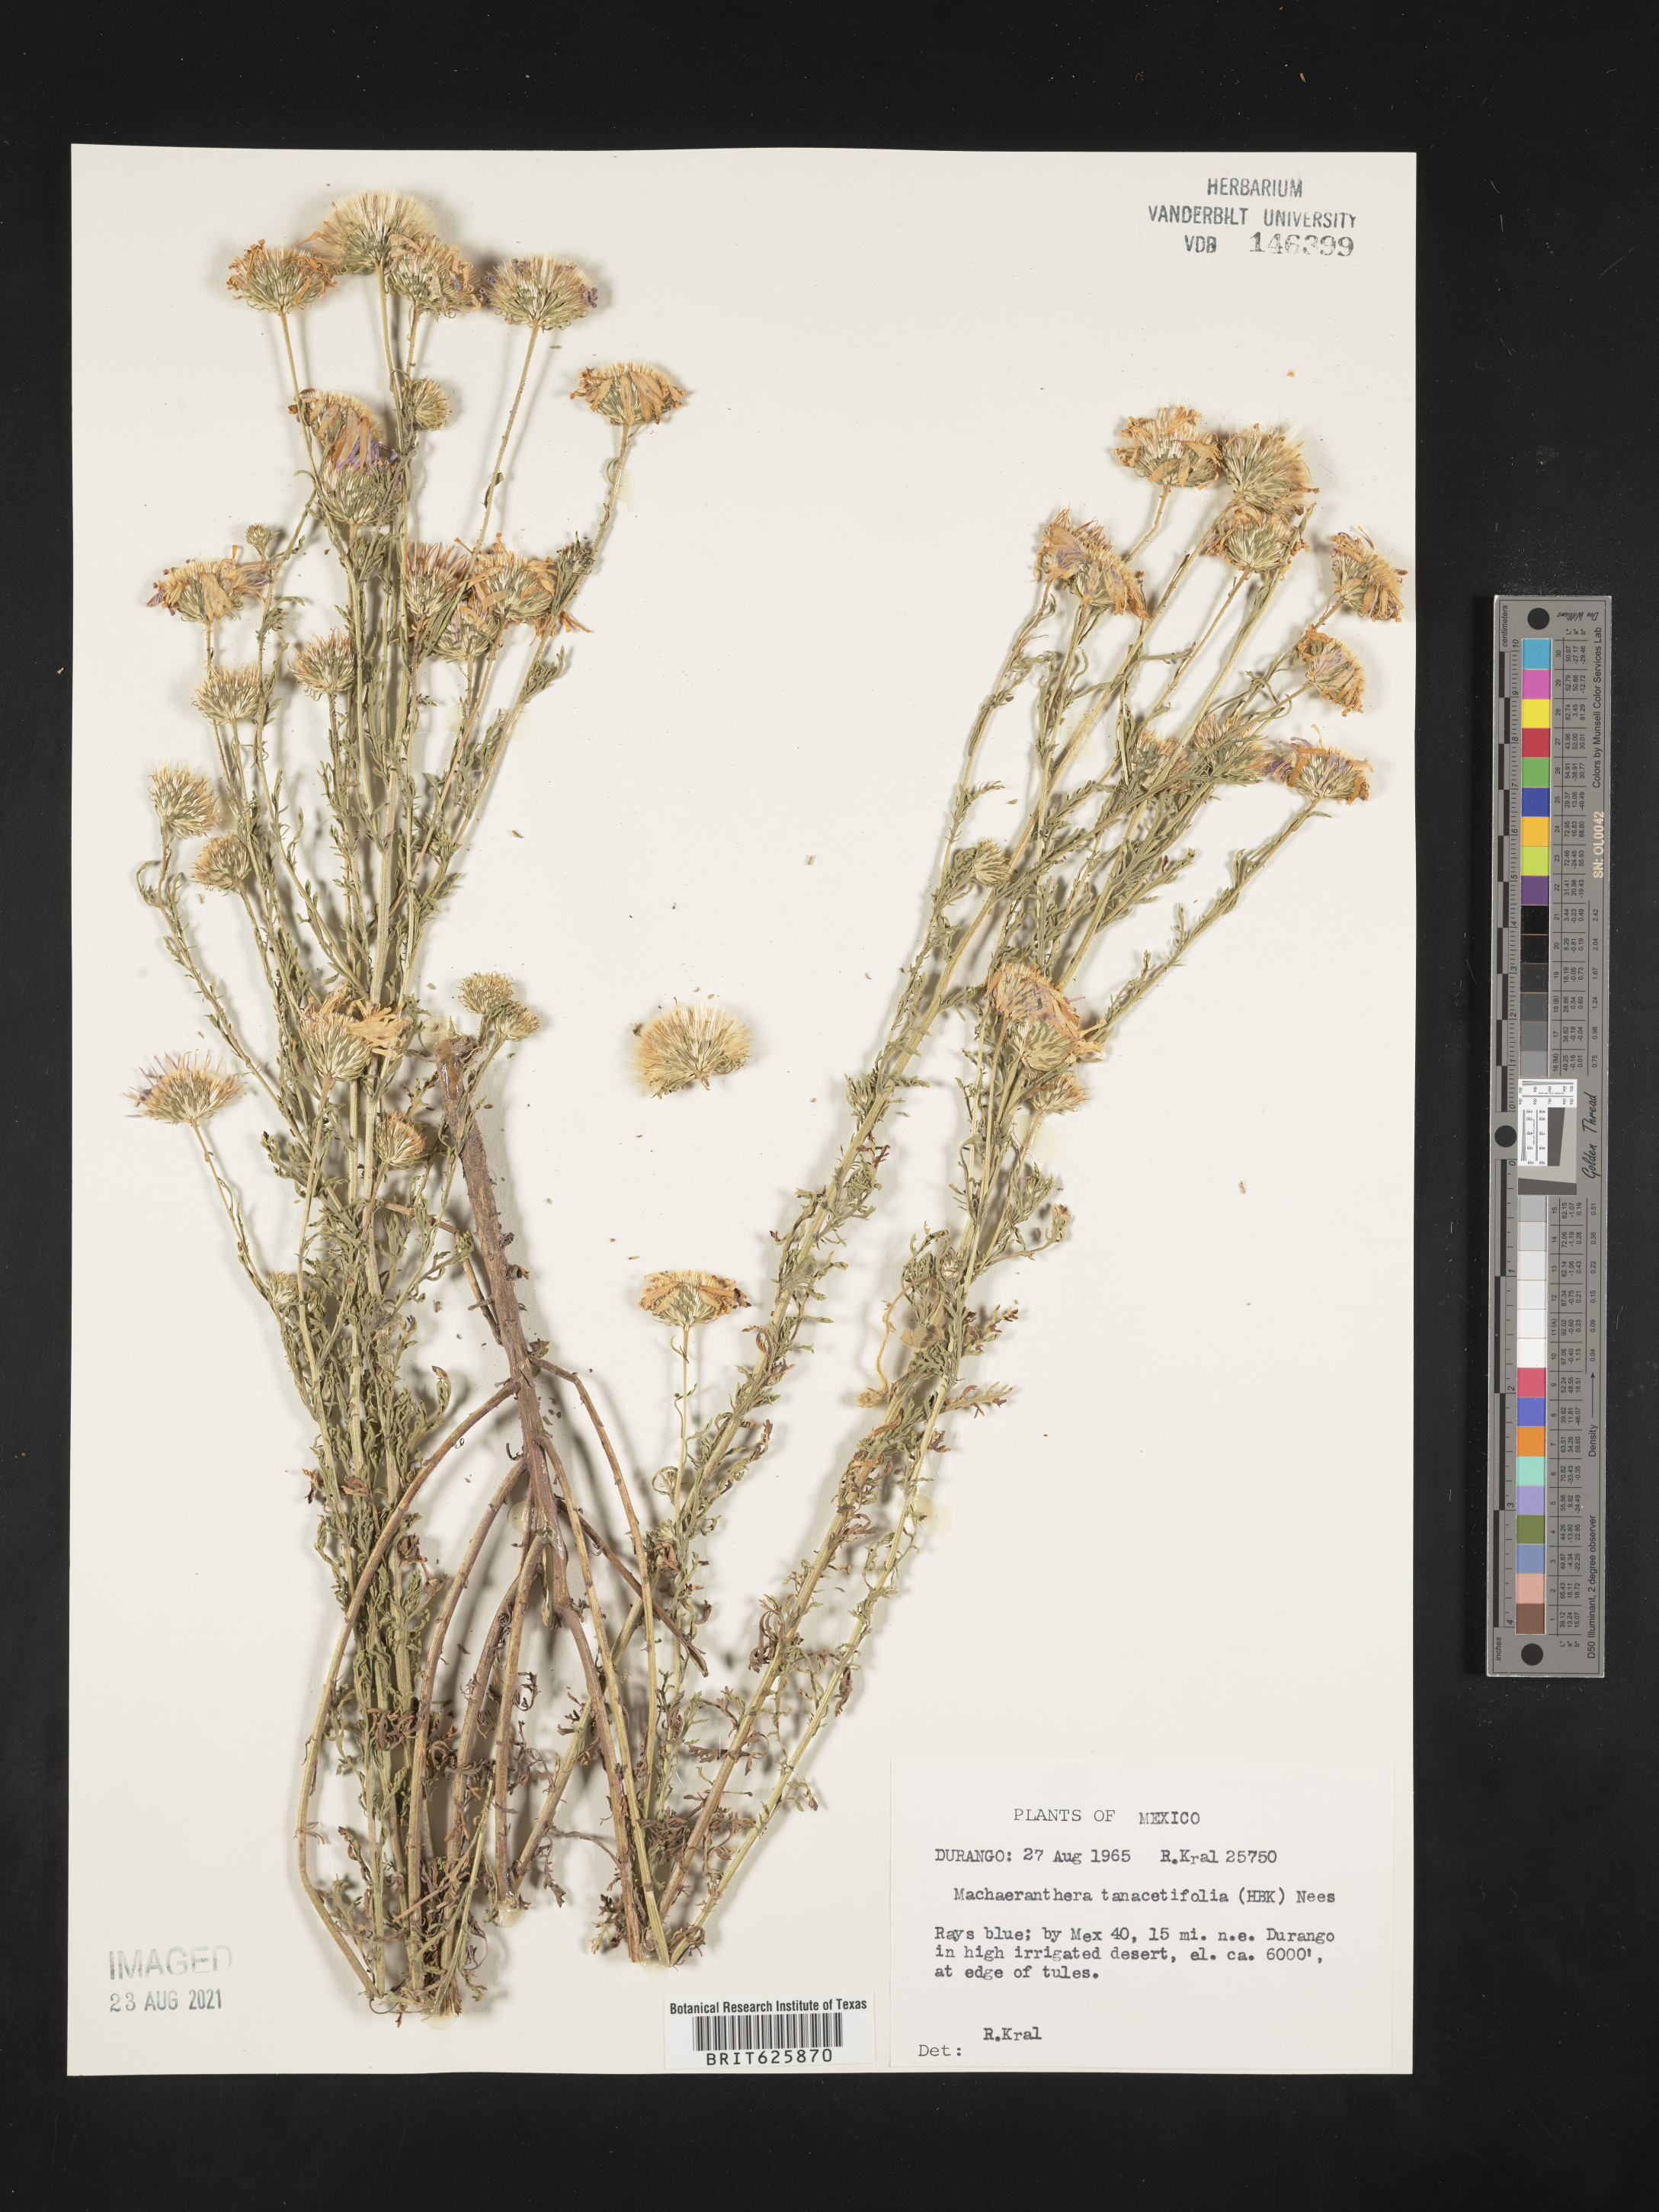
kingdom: Plantae
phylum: Tracheophyta
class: Magnoliopsida
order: Asterales
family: Asteraceae
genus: Machaeranthera
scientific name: Machaeranthera
